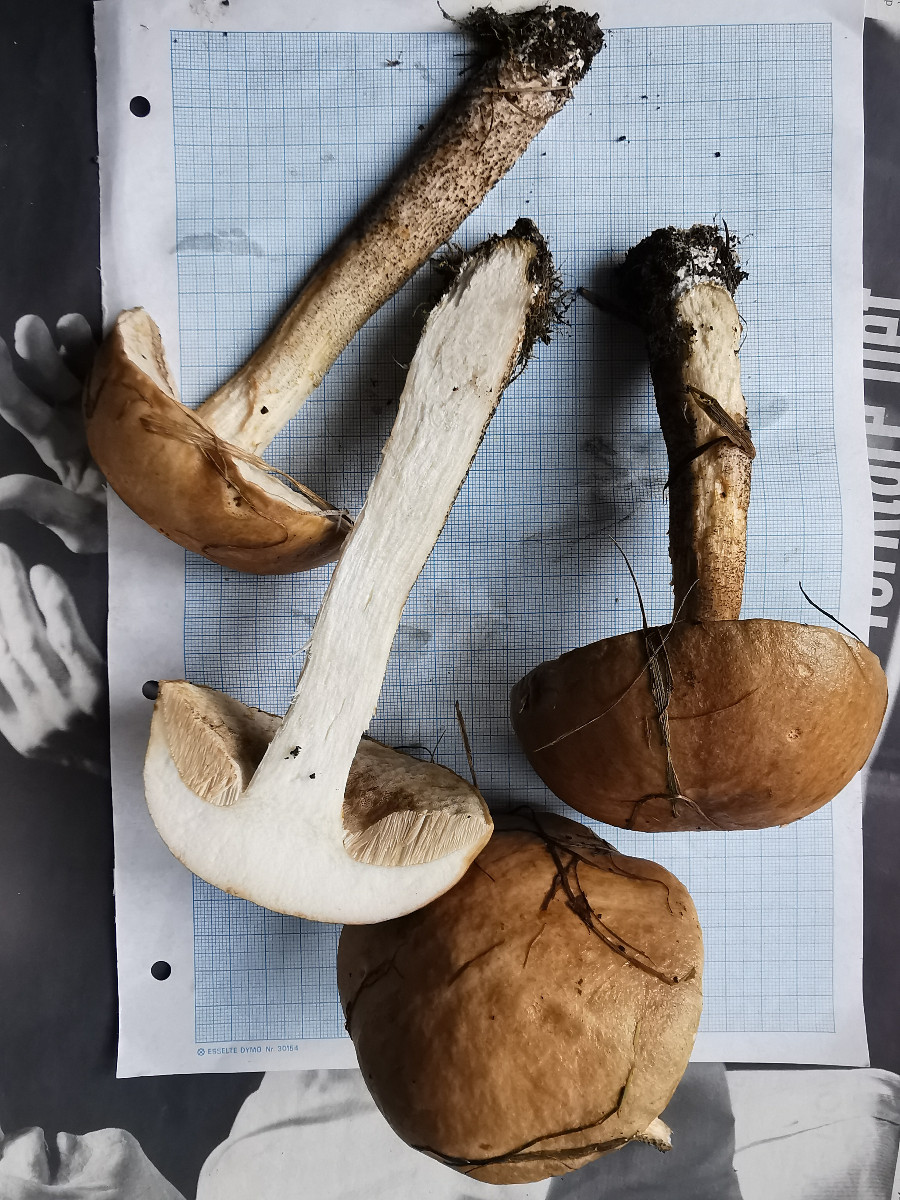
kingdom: Fungi
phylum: Basidiomycota
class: Agaricomycetes
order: Boletales
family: Boletaceae
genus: Leccinum
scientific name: Leccinum scabrum
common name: brun skælrørhat
